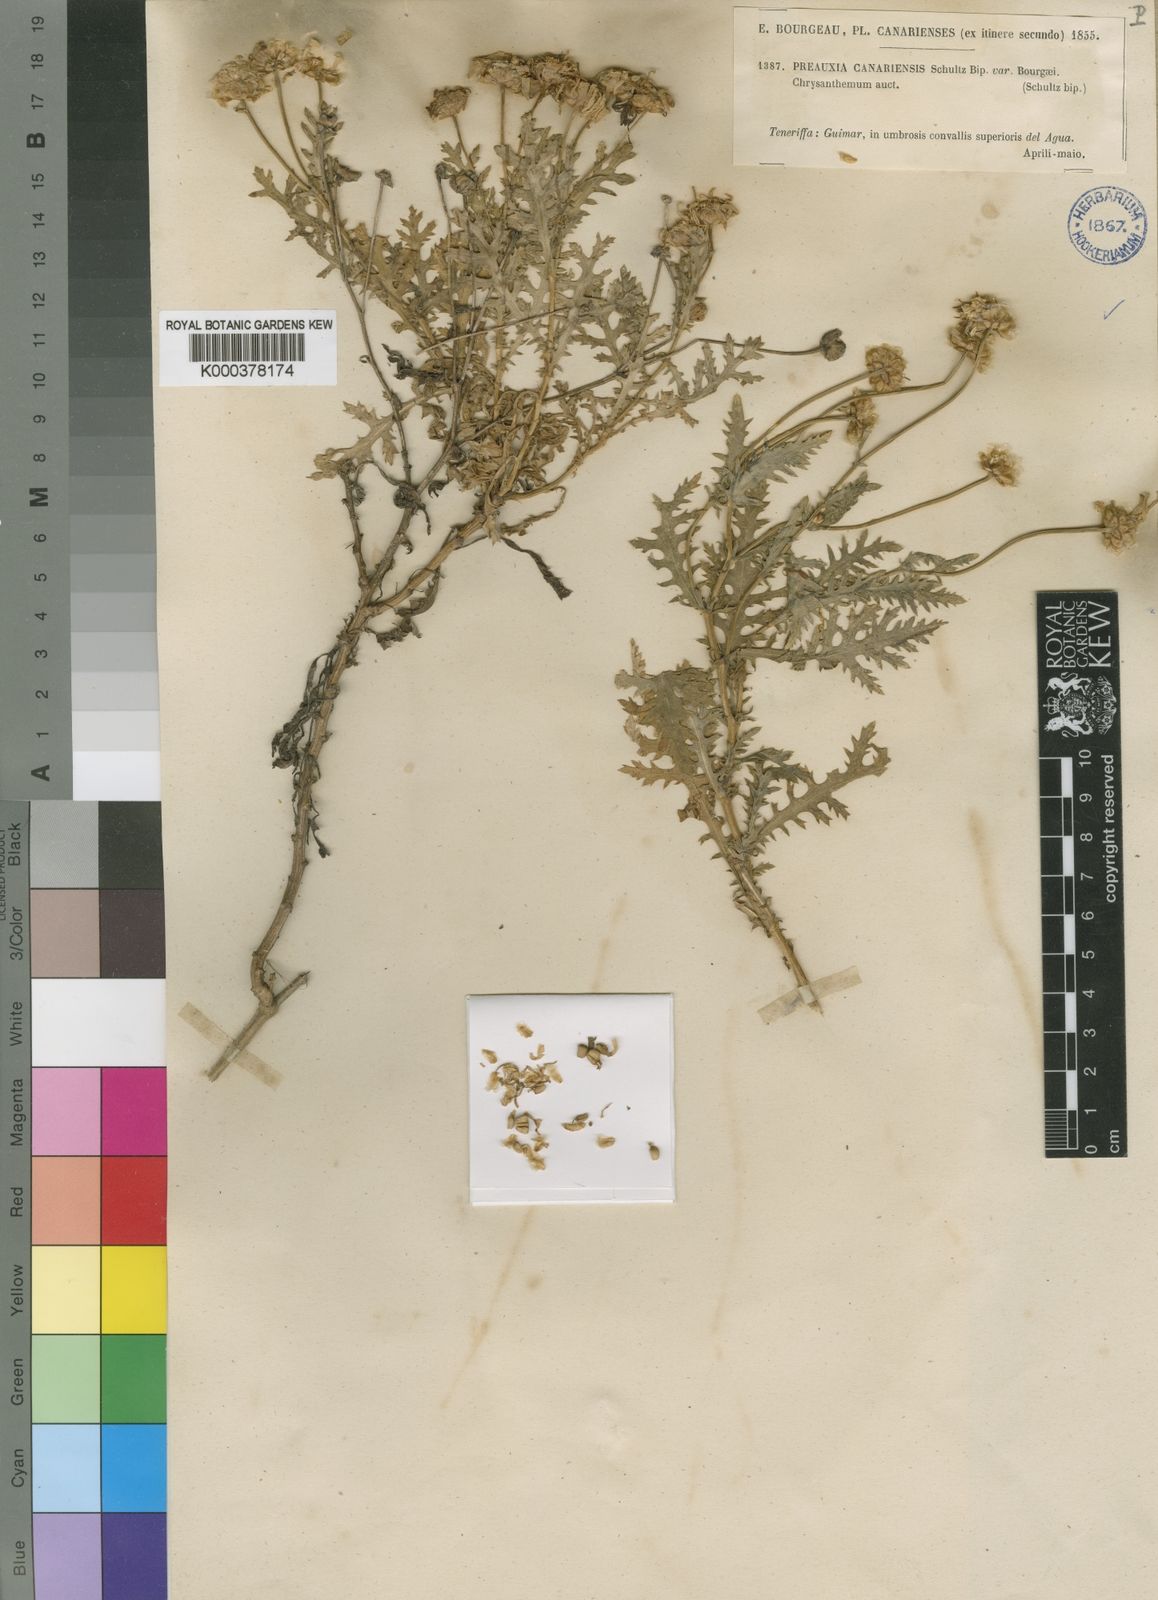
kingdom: Plantae
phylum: Tracheophyta
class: Magnoliopsida
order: Asterales
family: Asteraceae
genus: Argyranthemum
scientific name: Argyranthemum adauctum
